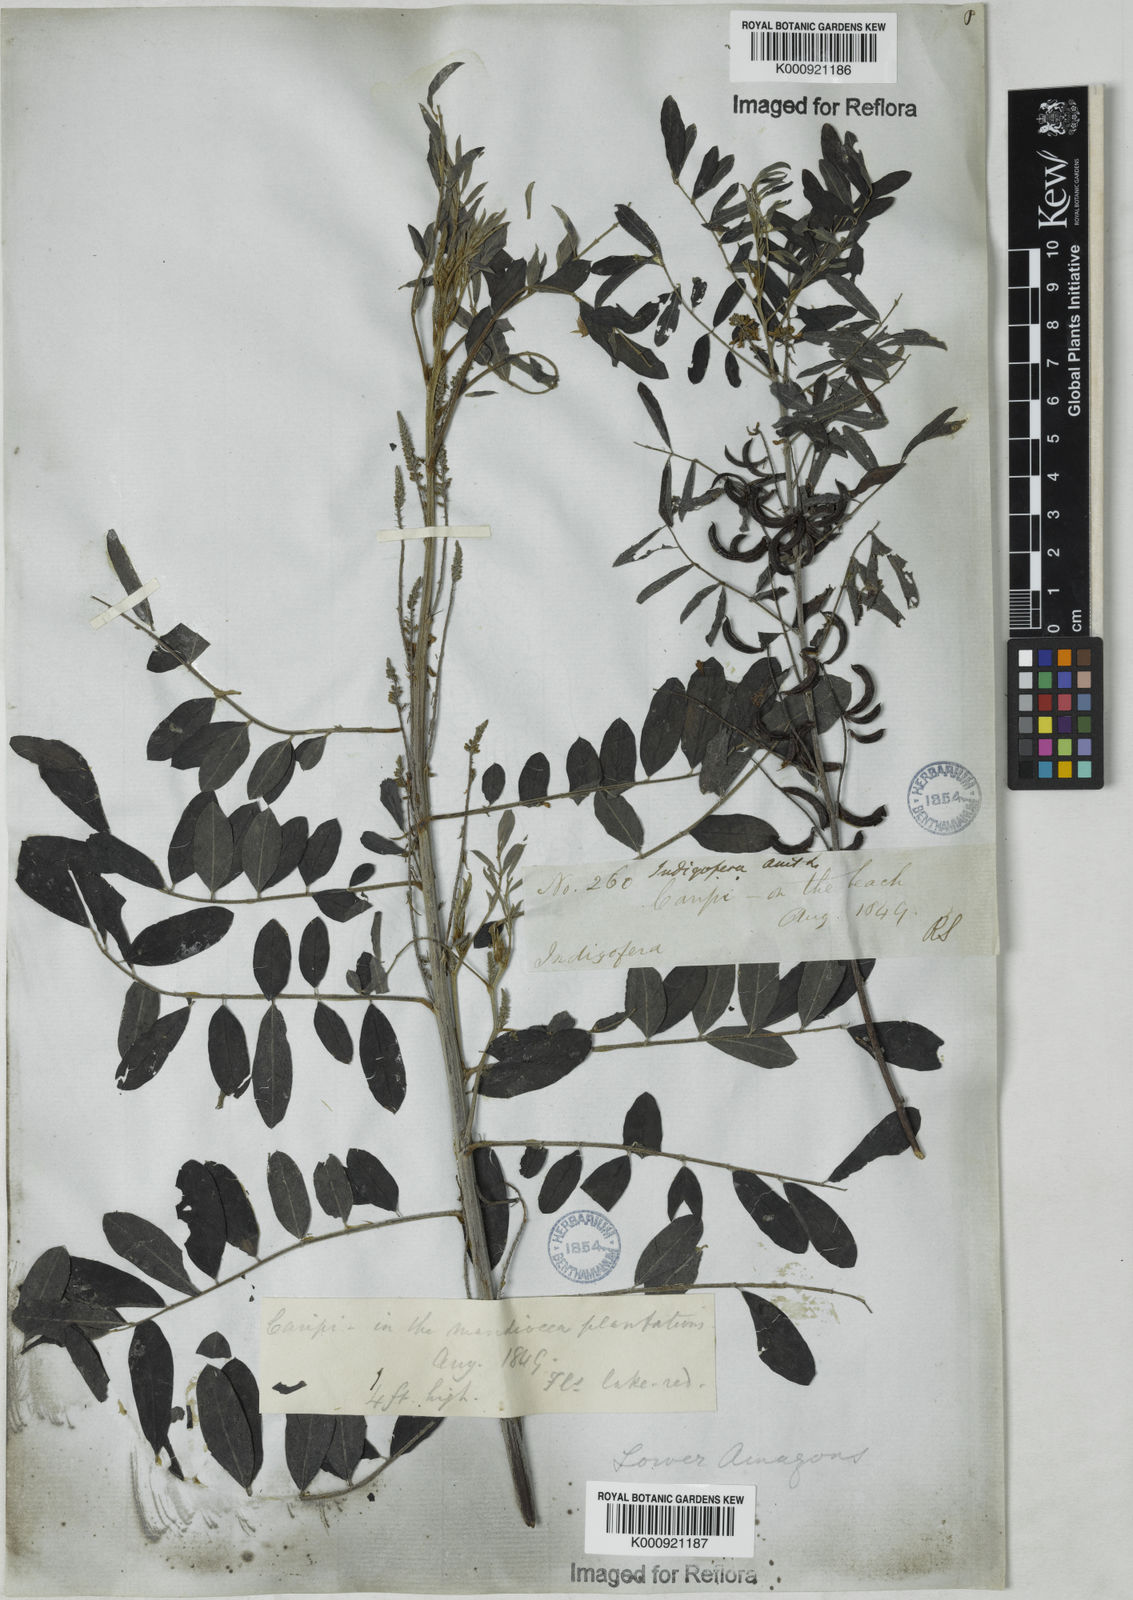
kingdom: Plantae
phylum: Tracheophyta
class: Magnoliopsida
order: Fabales
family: Fabaceae
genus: Indigofera
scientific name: Indigofera suffruticosa
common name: Anil de pasto
